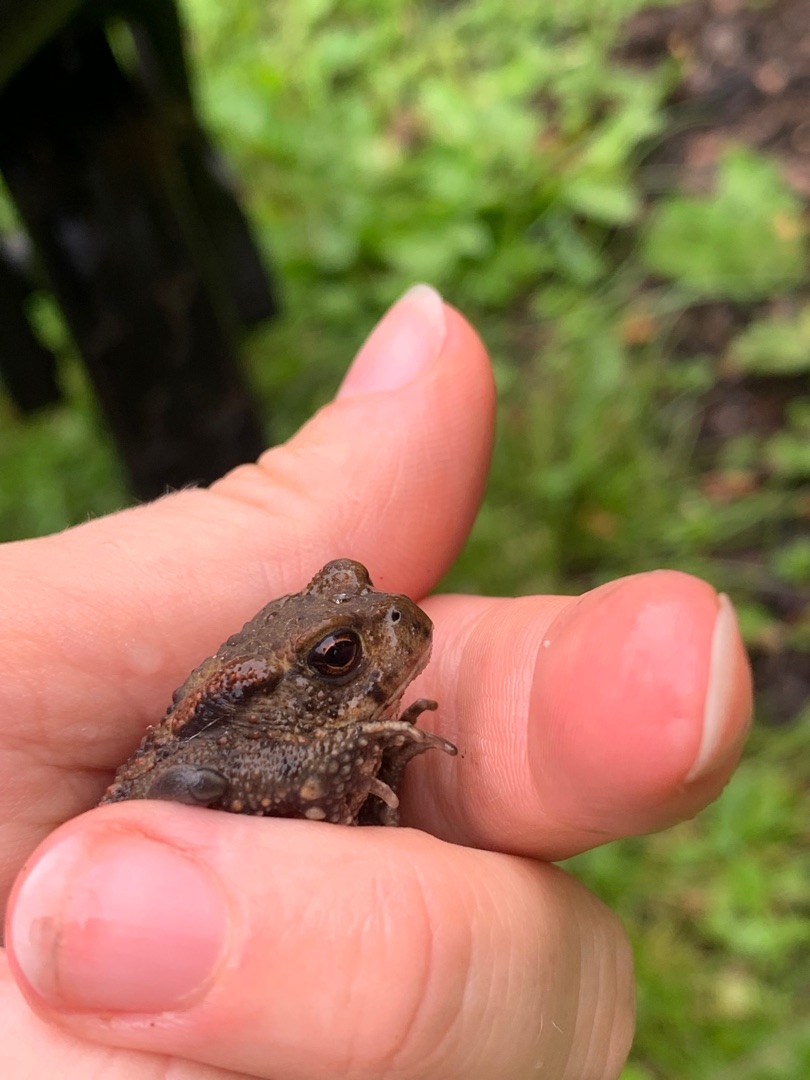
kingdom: Animalia
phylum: Chordata
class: Amphibia
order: Anura
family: Bufonidae
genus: Bufo
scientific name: Bufo bufo
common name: Skrubtudse
